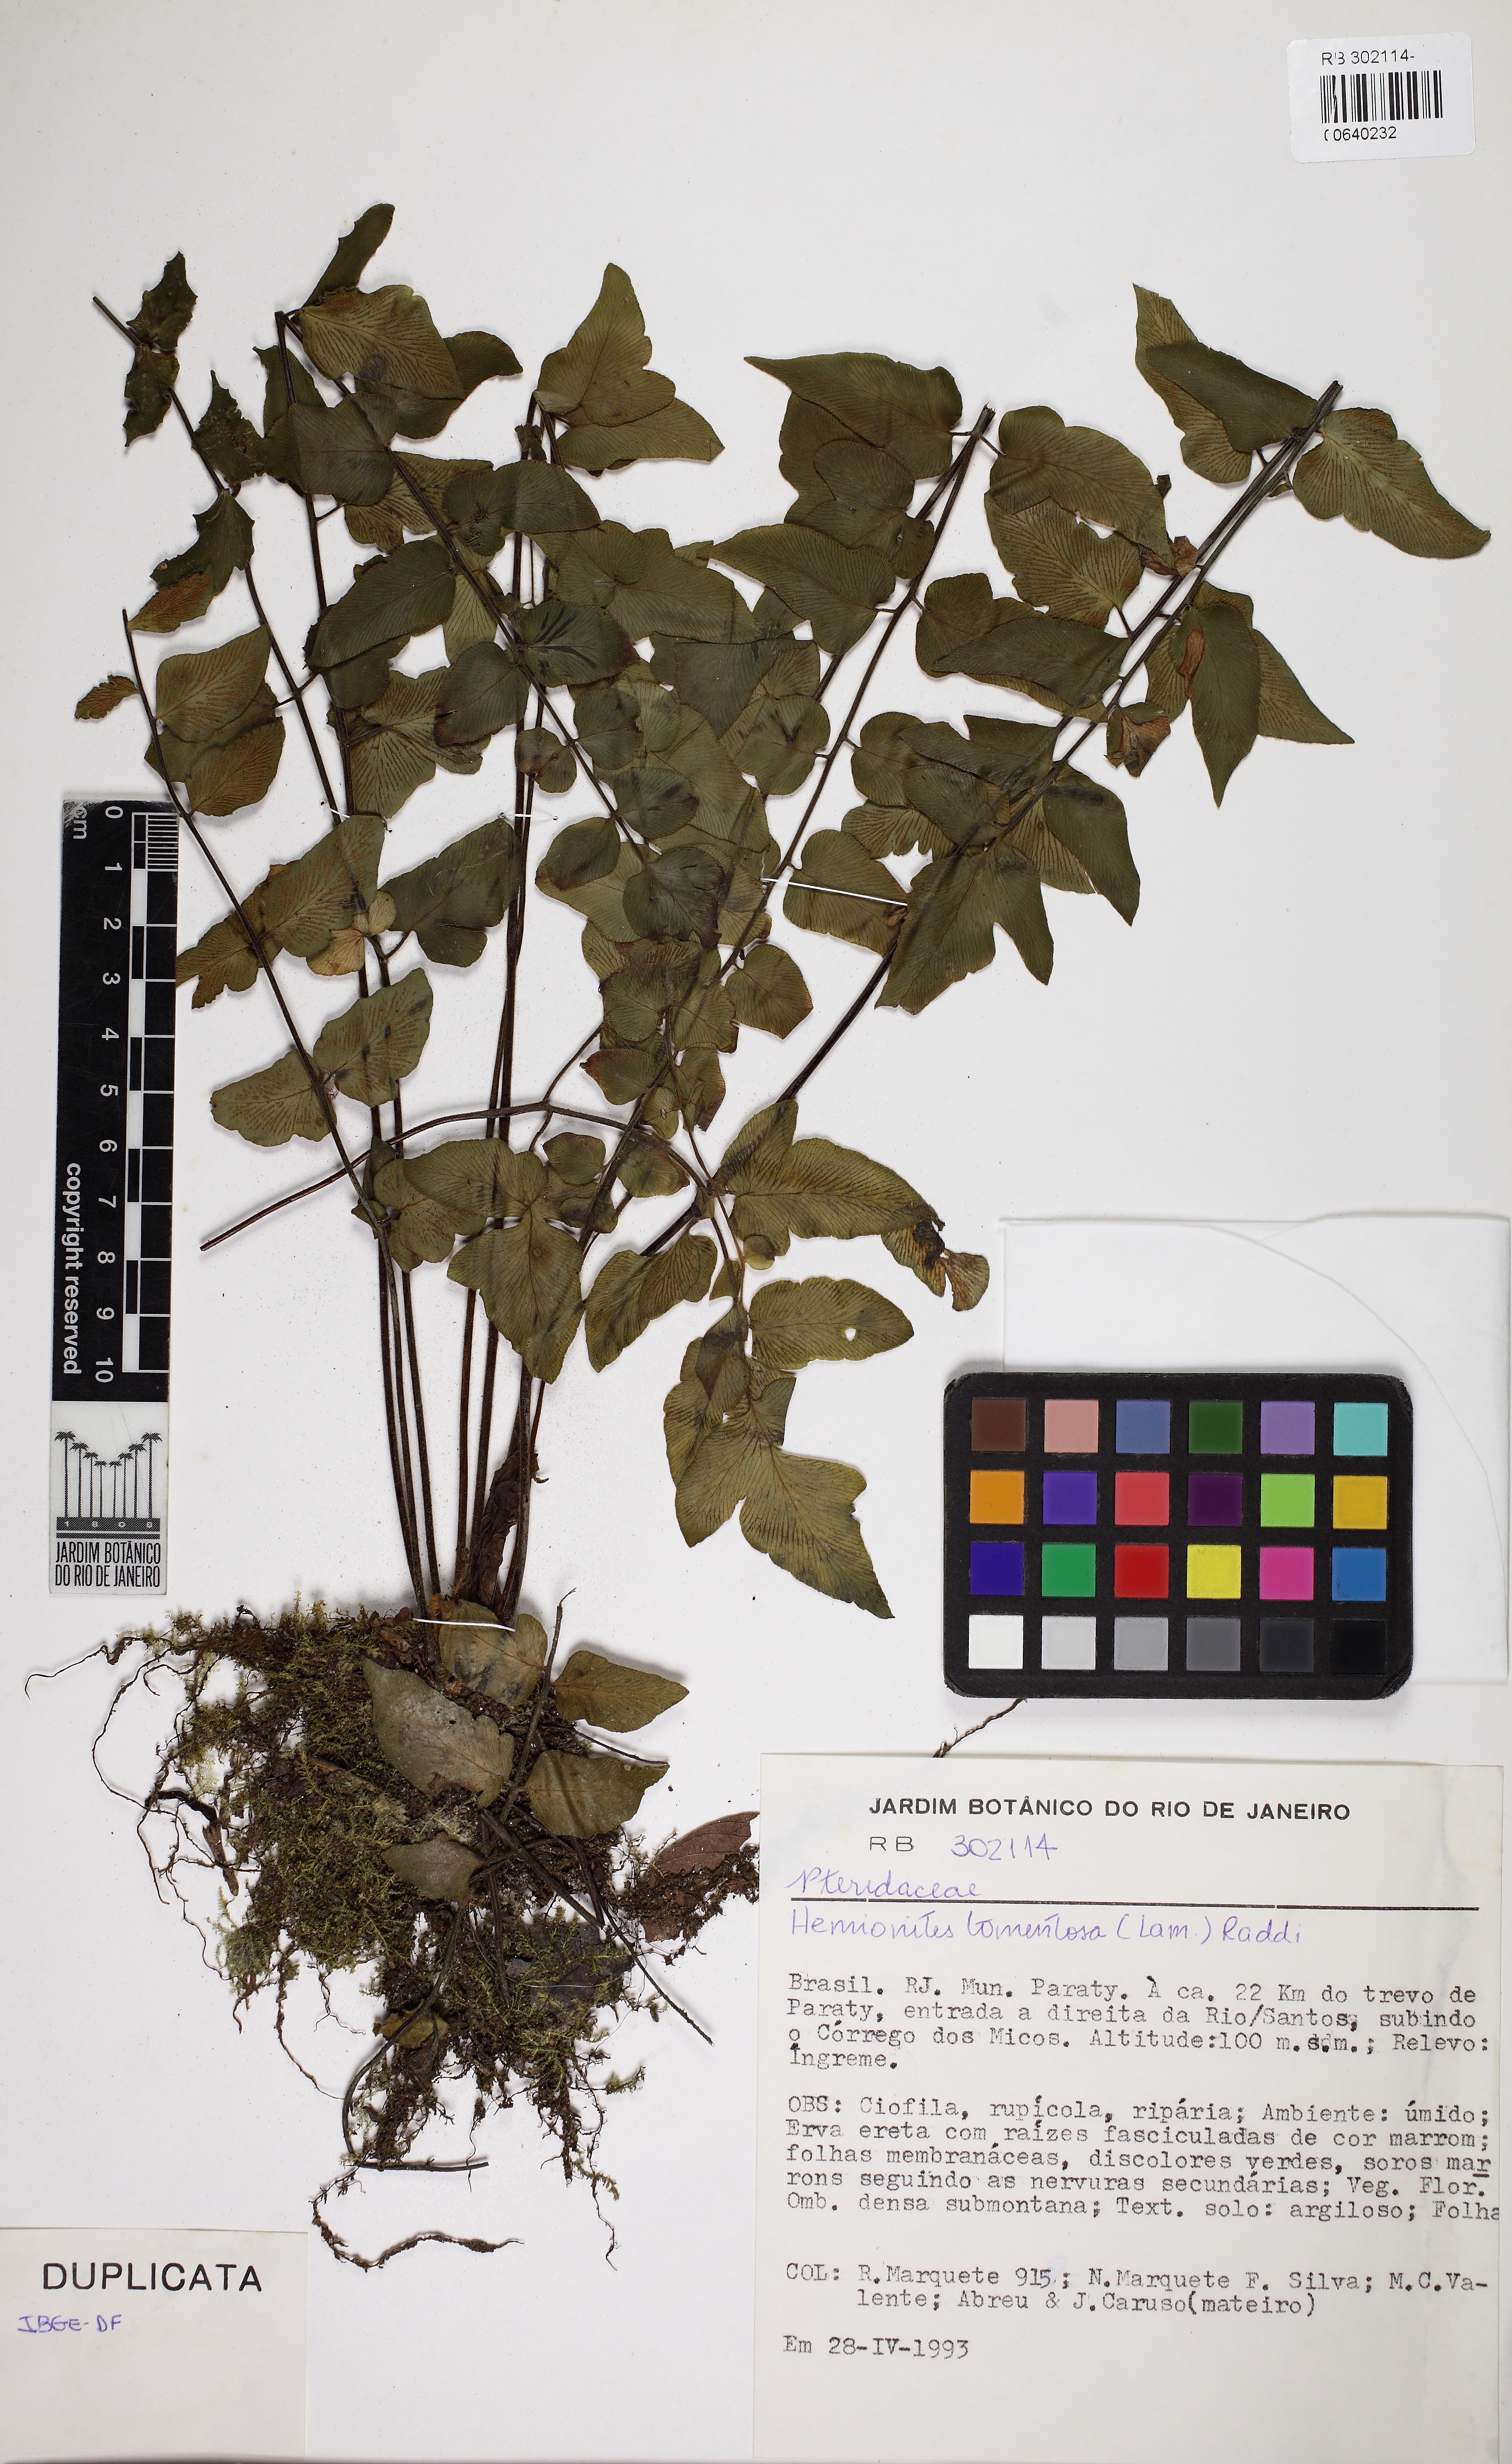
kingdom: Plantae
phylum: Tracheophyta
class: Polypodiopsida
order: Polypodiales
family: Pteridaceae
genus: Hemionitis
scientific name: Hemionitis tomentosa
